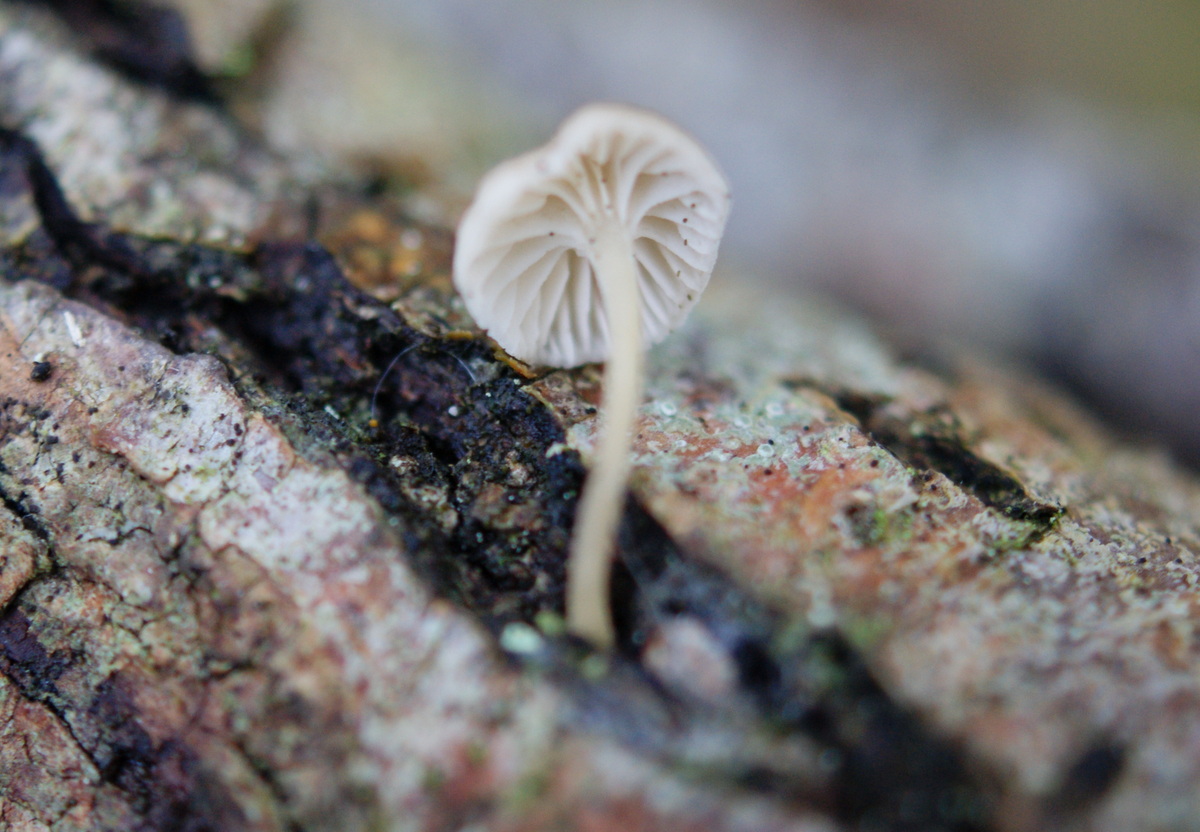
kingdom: Fungi
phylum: Basidiomycota
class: Agaricomycetes
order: Agaricales
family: Porotheleaceae
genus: Phloeomana
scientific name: Phloeomana speirea
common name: kvist-huesvamp
